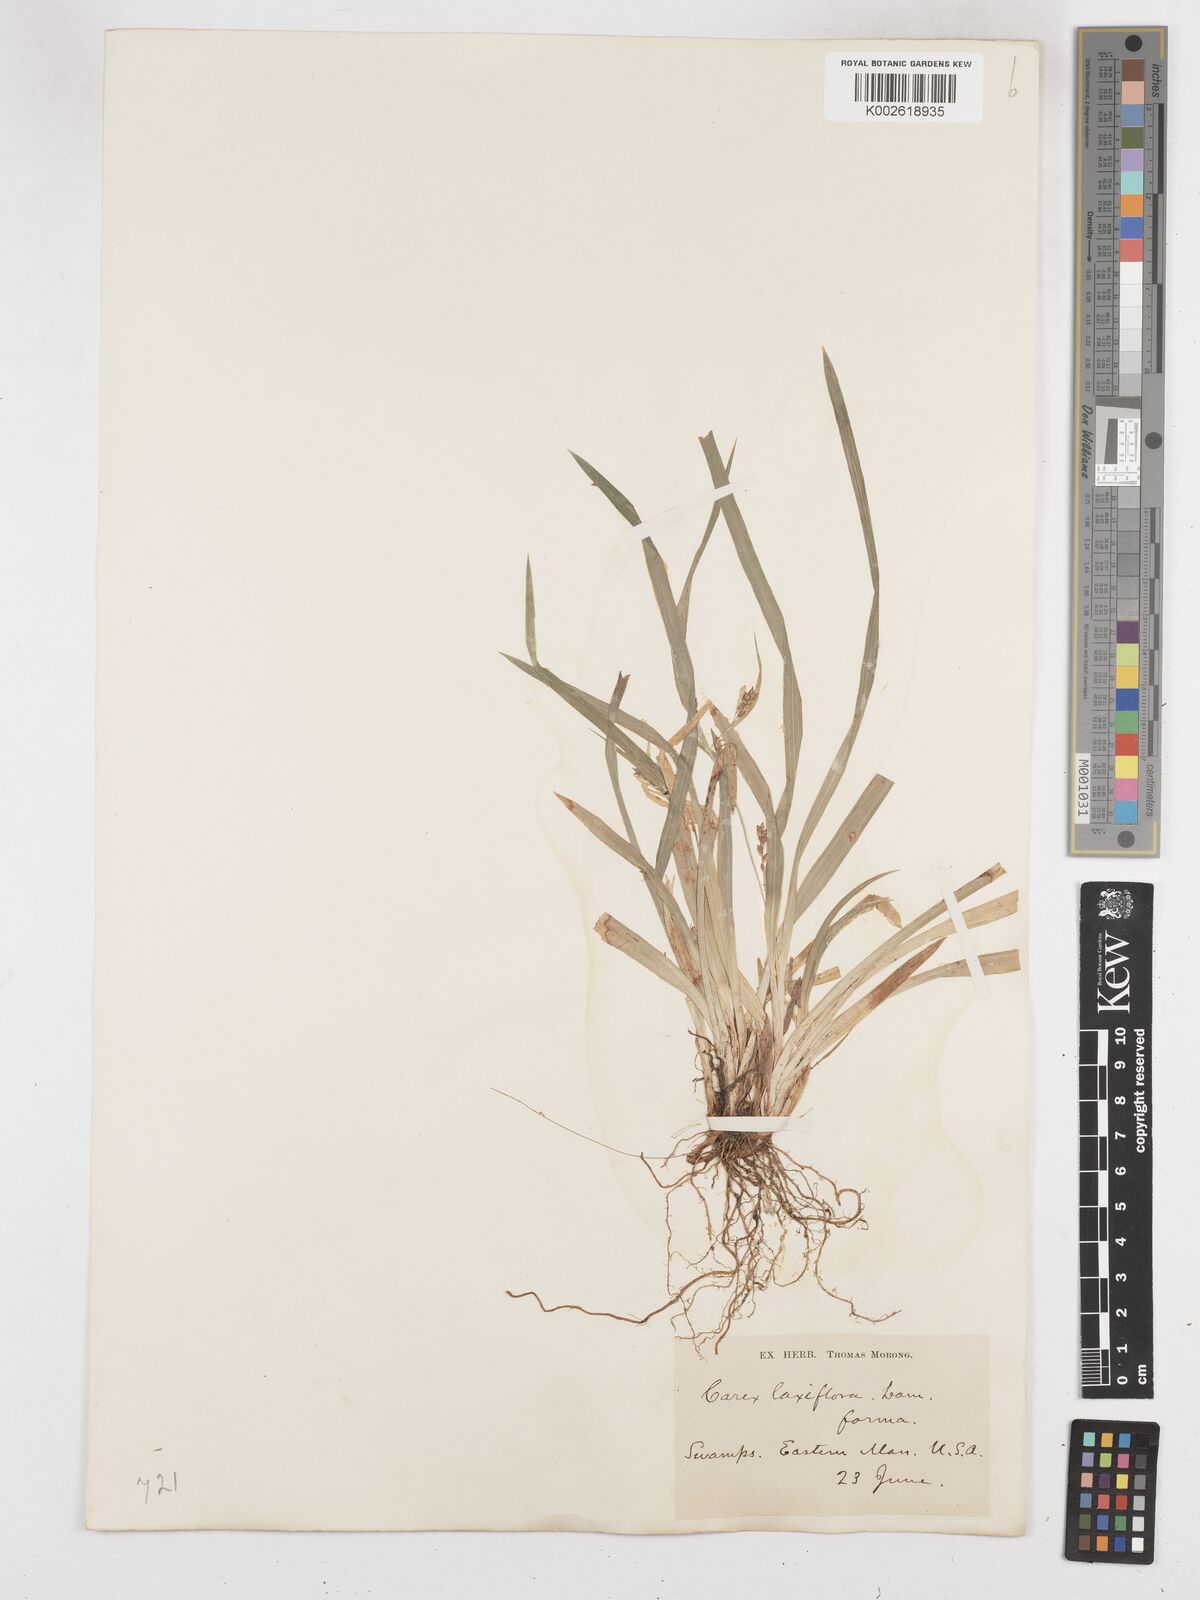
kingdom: Plantae
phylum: Tracheophyta
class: Liliopsida
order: Poales
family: Cyperaceae
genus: Carex
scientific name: Carex laxiflora
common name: Beech wood sedge
